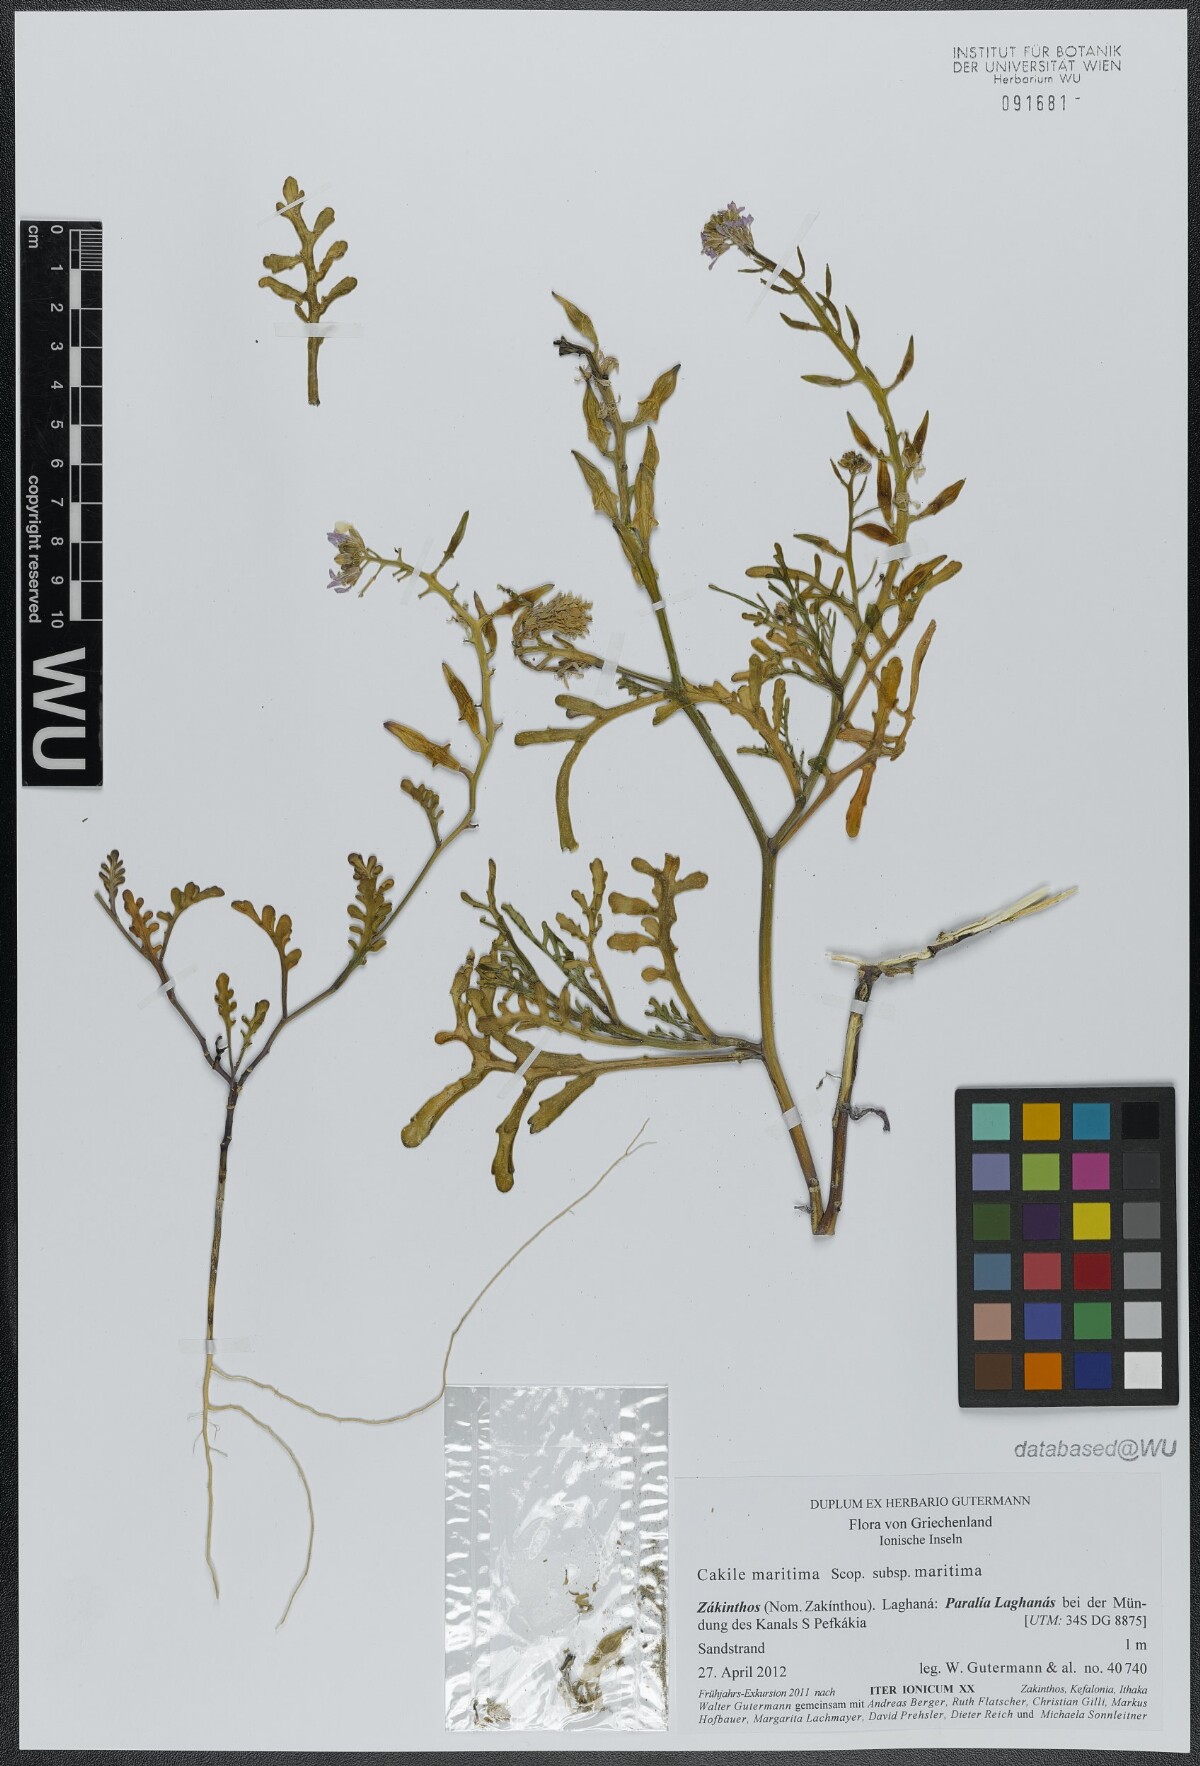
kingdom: Plantae
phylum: Tracheophyta
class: Magnoliopsida
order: Brassicales
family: Brassicaceae
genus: Cakile
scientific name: Cakile maritima
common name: Sea rocket
